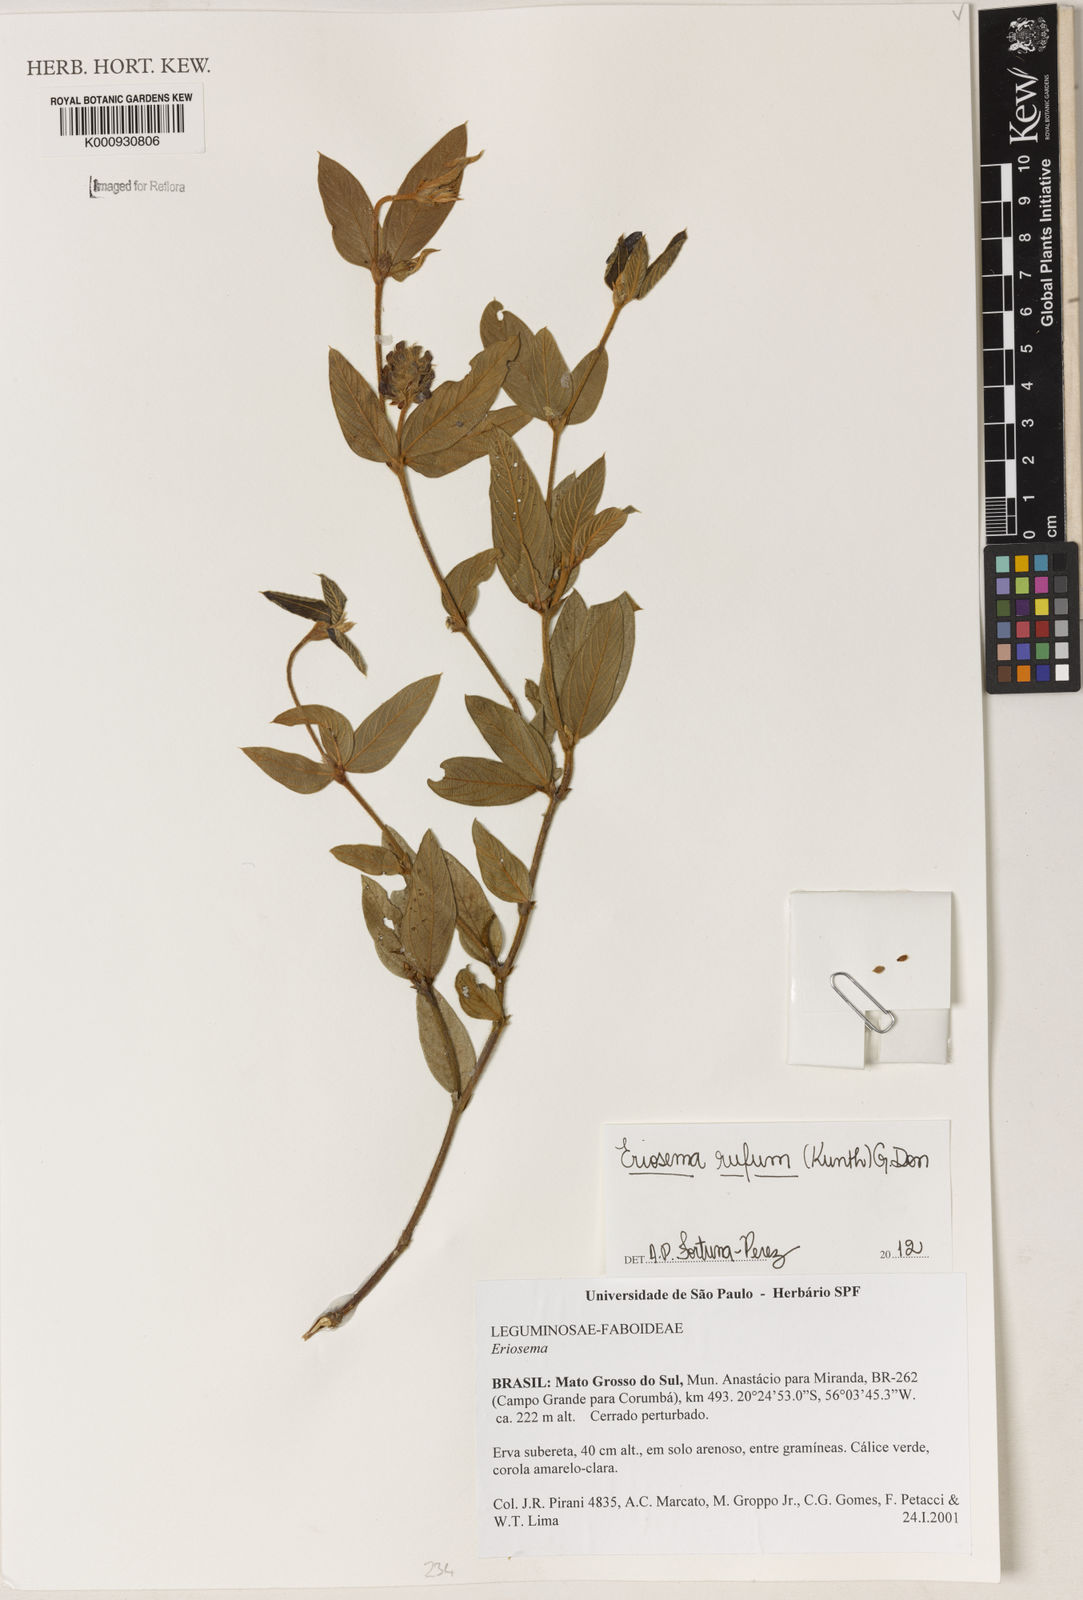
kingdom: Plantae
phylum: Tracheophyta
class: Magnoliopsida
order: Fabales
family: Fabaceae
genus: Eriosema
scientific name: Eriosema rufum
